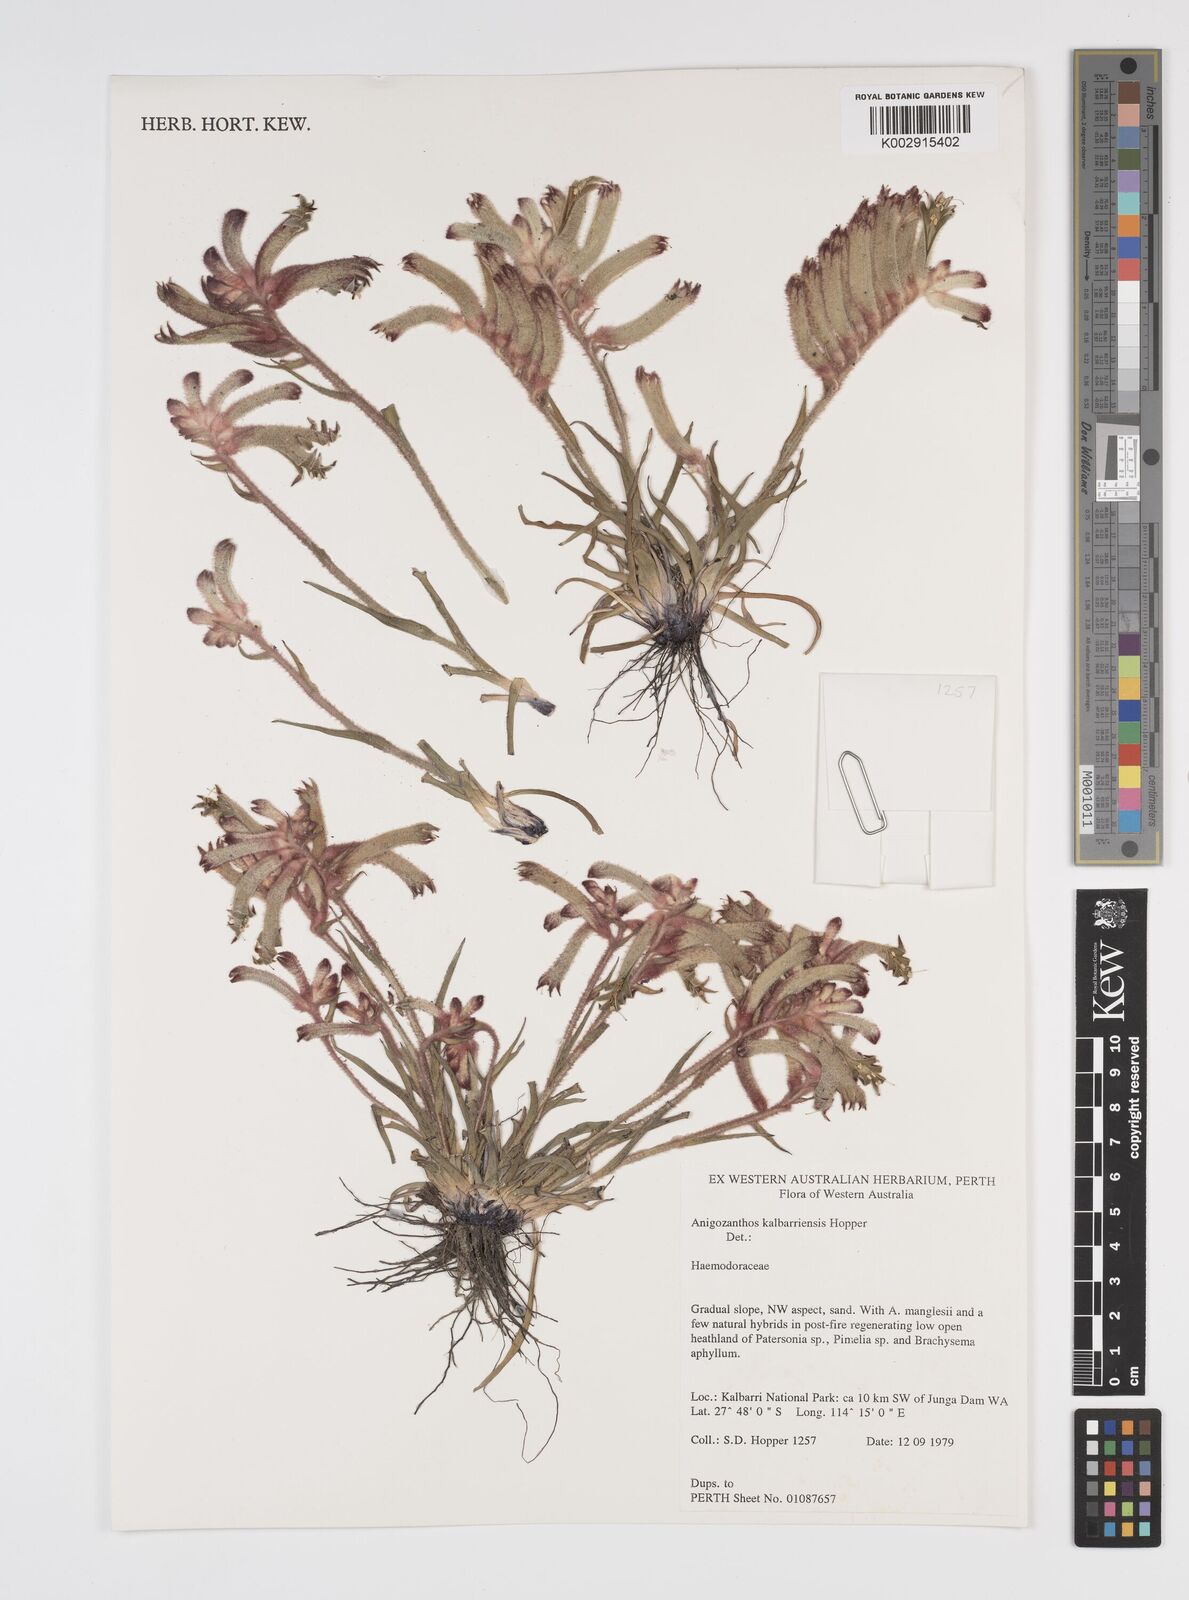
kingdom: Plantae
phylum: Tracheophyta
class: Liliopsida
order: Commelinales
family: Haemodoraceae
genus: Anigozanthos
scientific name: Anigozanthos kalbarriensis
